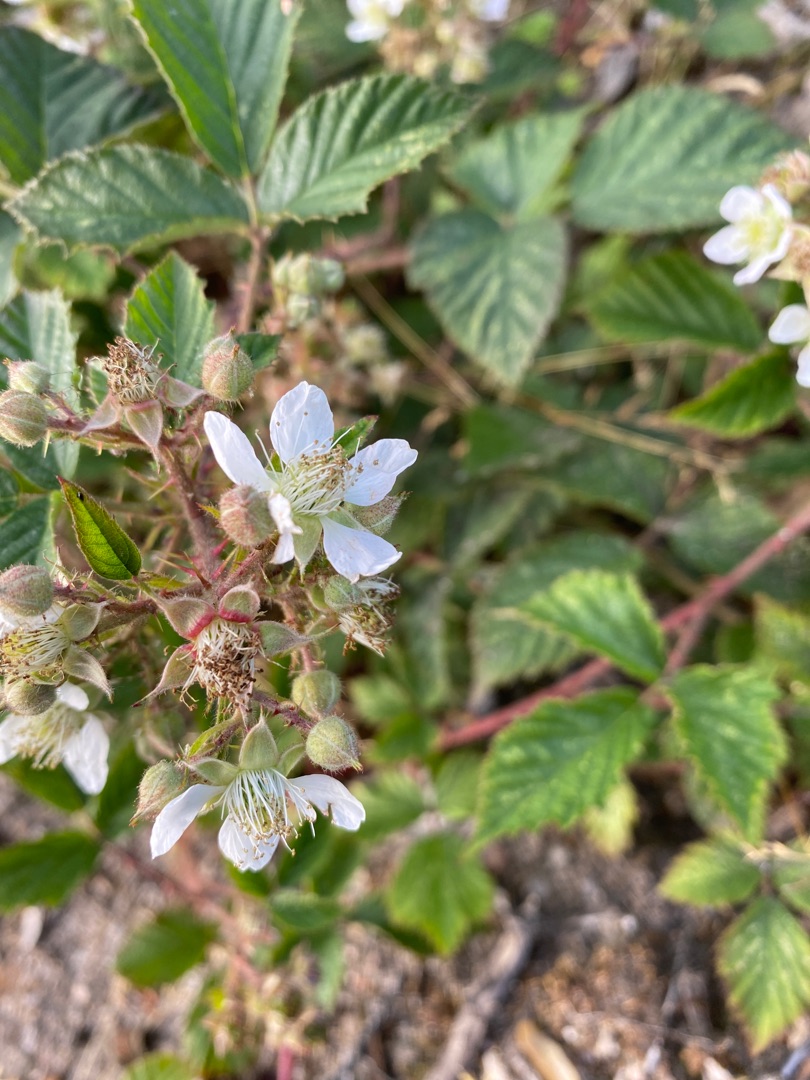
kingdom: Plantae
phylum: Tracheophyta
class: Magnoliopsida
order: Rosales
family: Rosaceae
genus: Rubus
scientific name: Rubus
